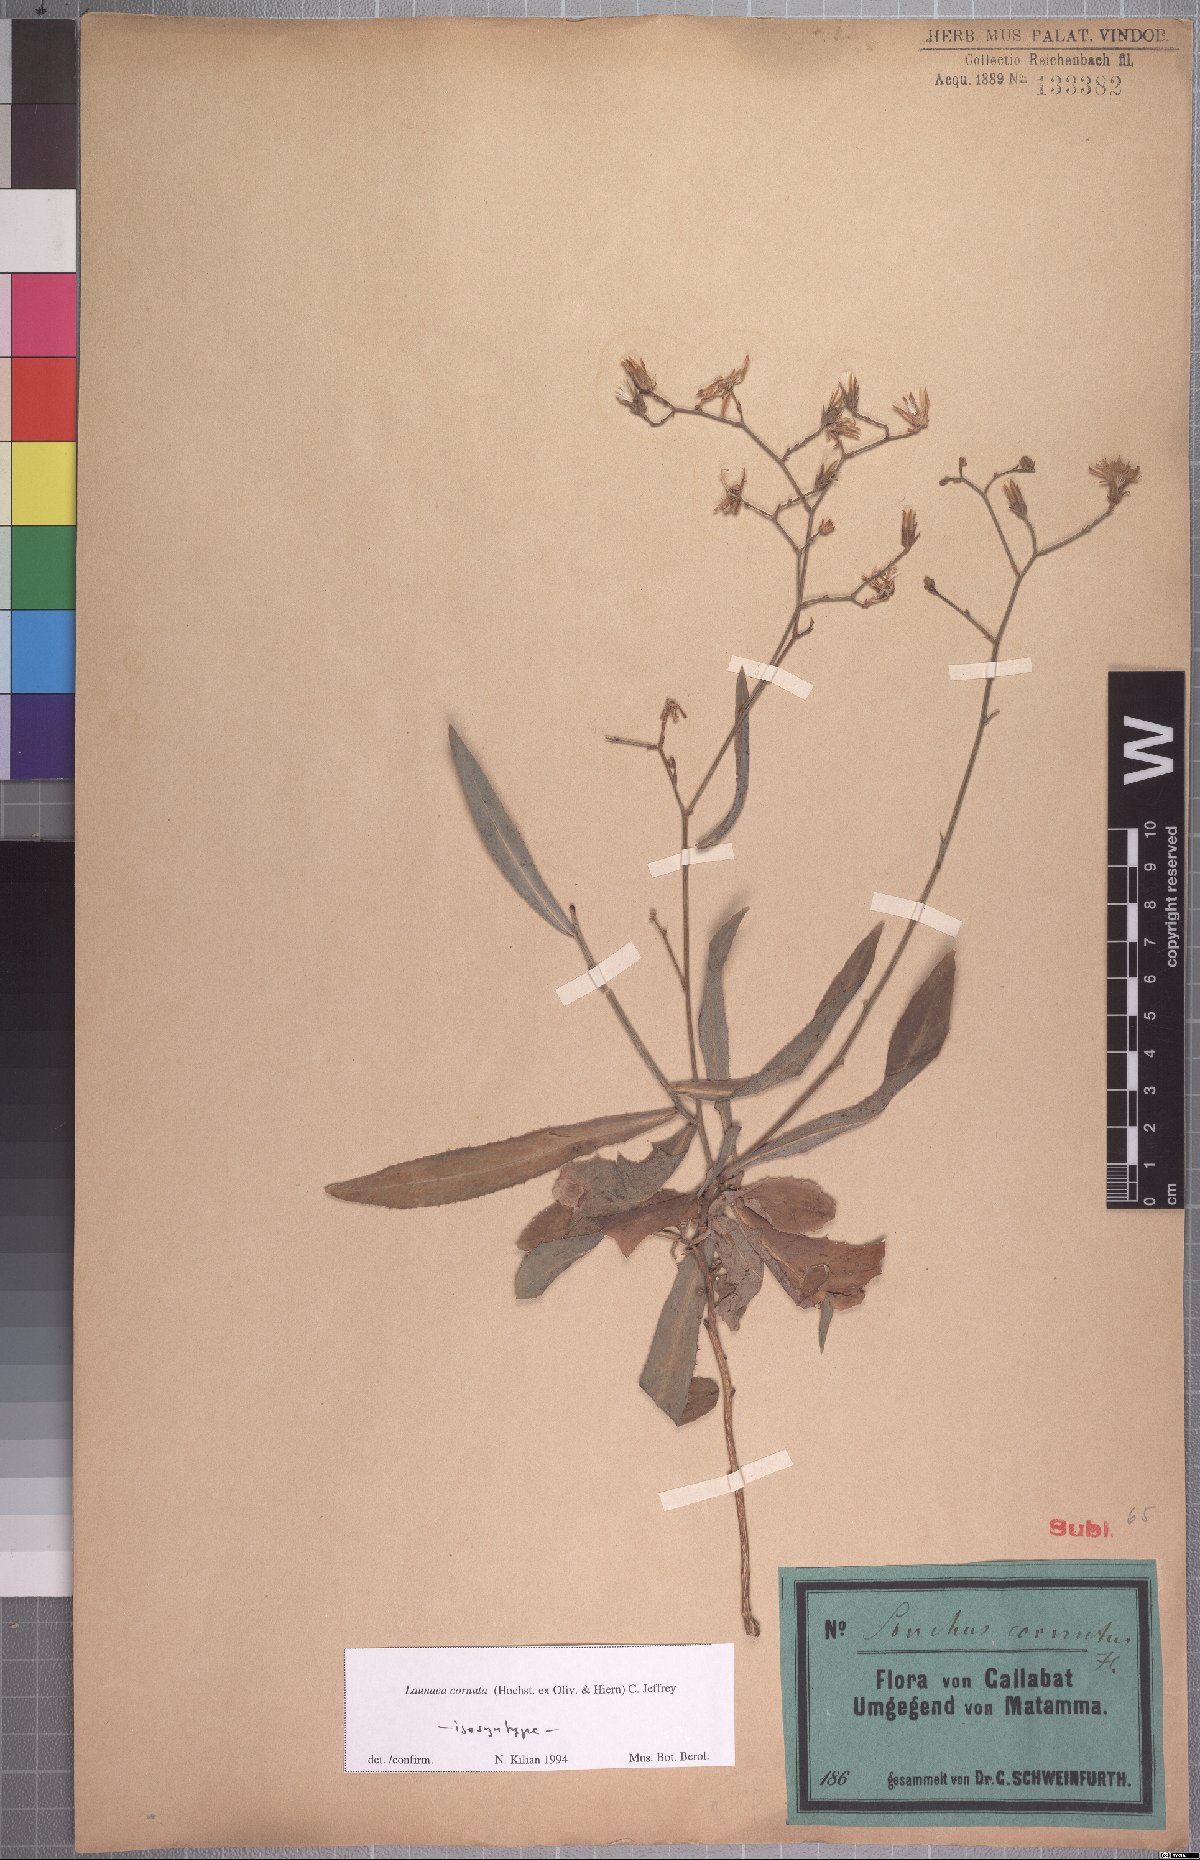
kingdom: Plantae
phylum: Tracheophyta
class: Magnoliopsida
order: Asterales
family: Asteraceae
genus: Launaea
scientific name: Launaea cornuta
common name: Bitter-lettuce
